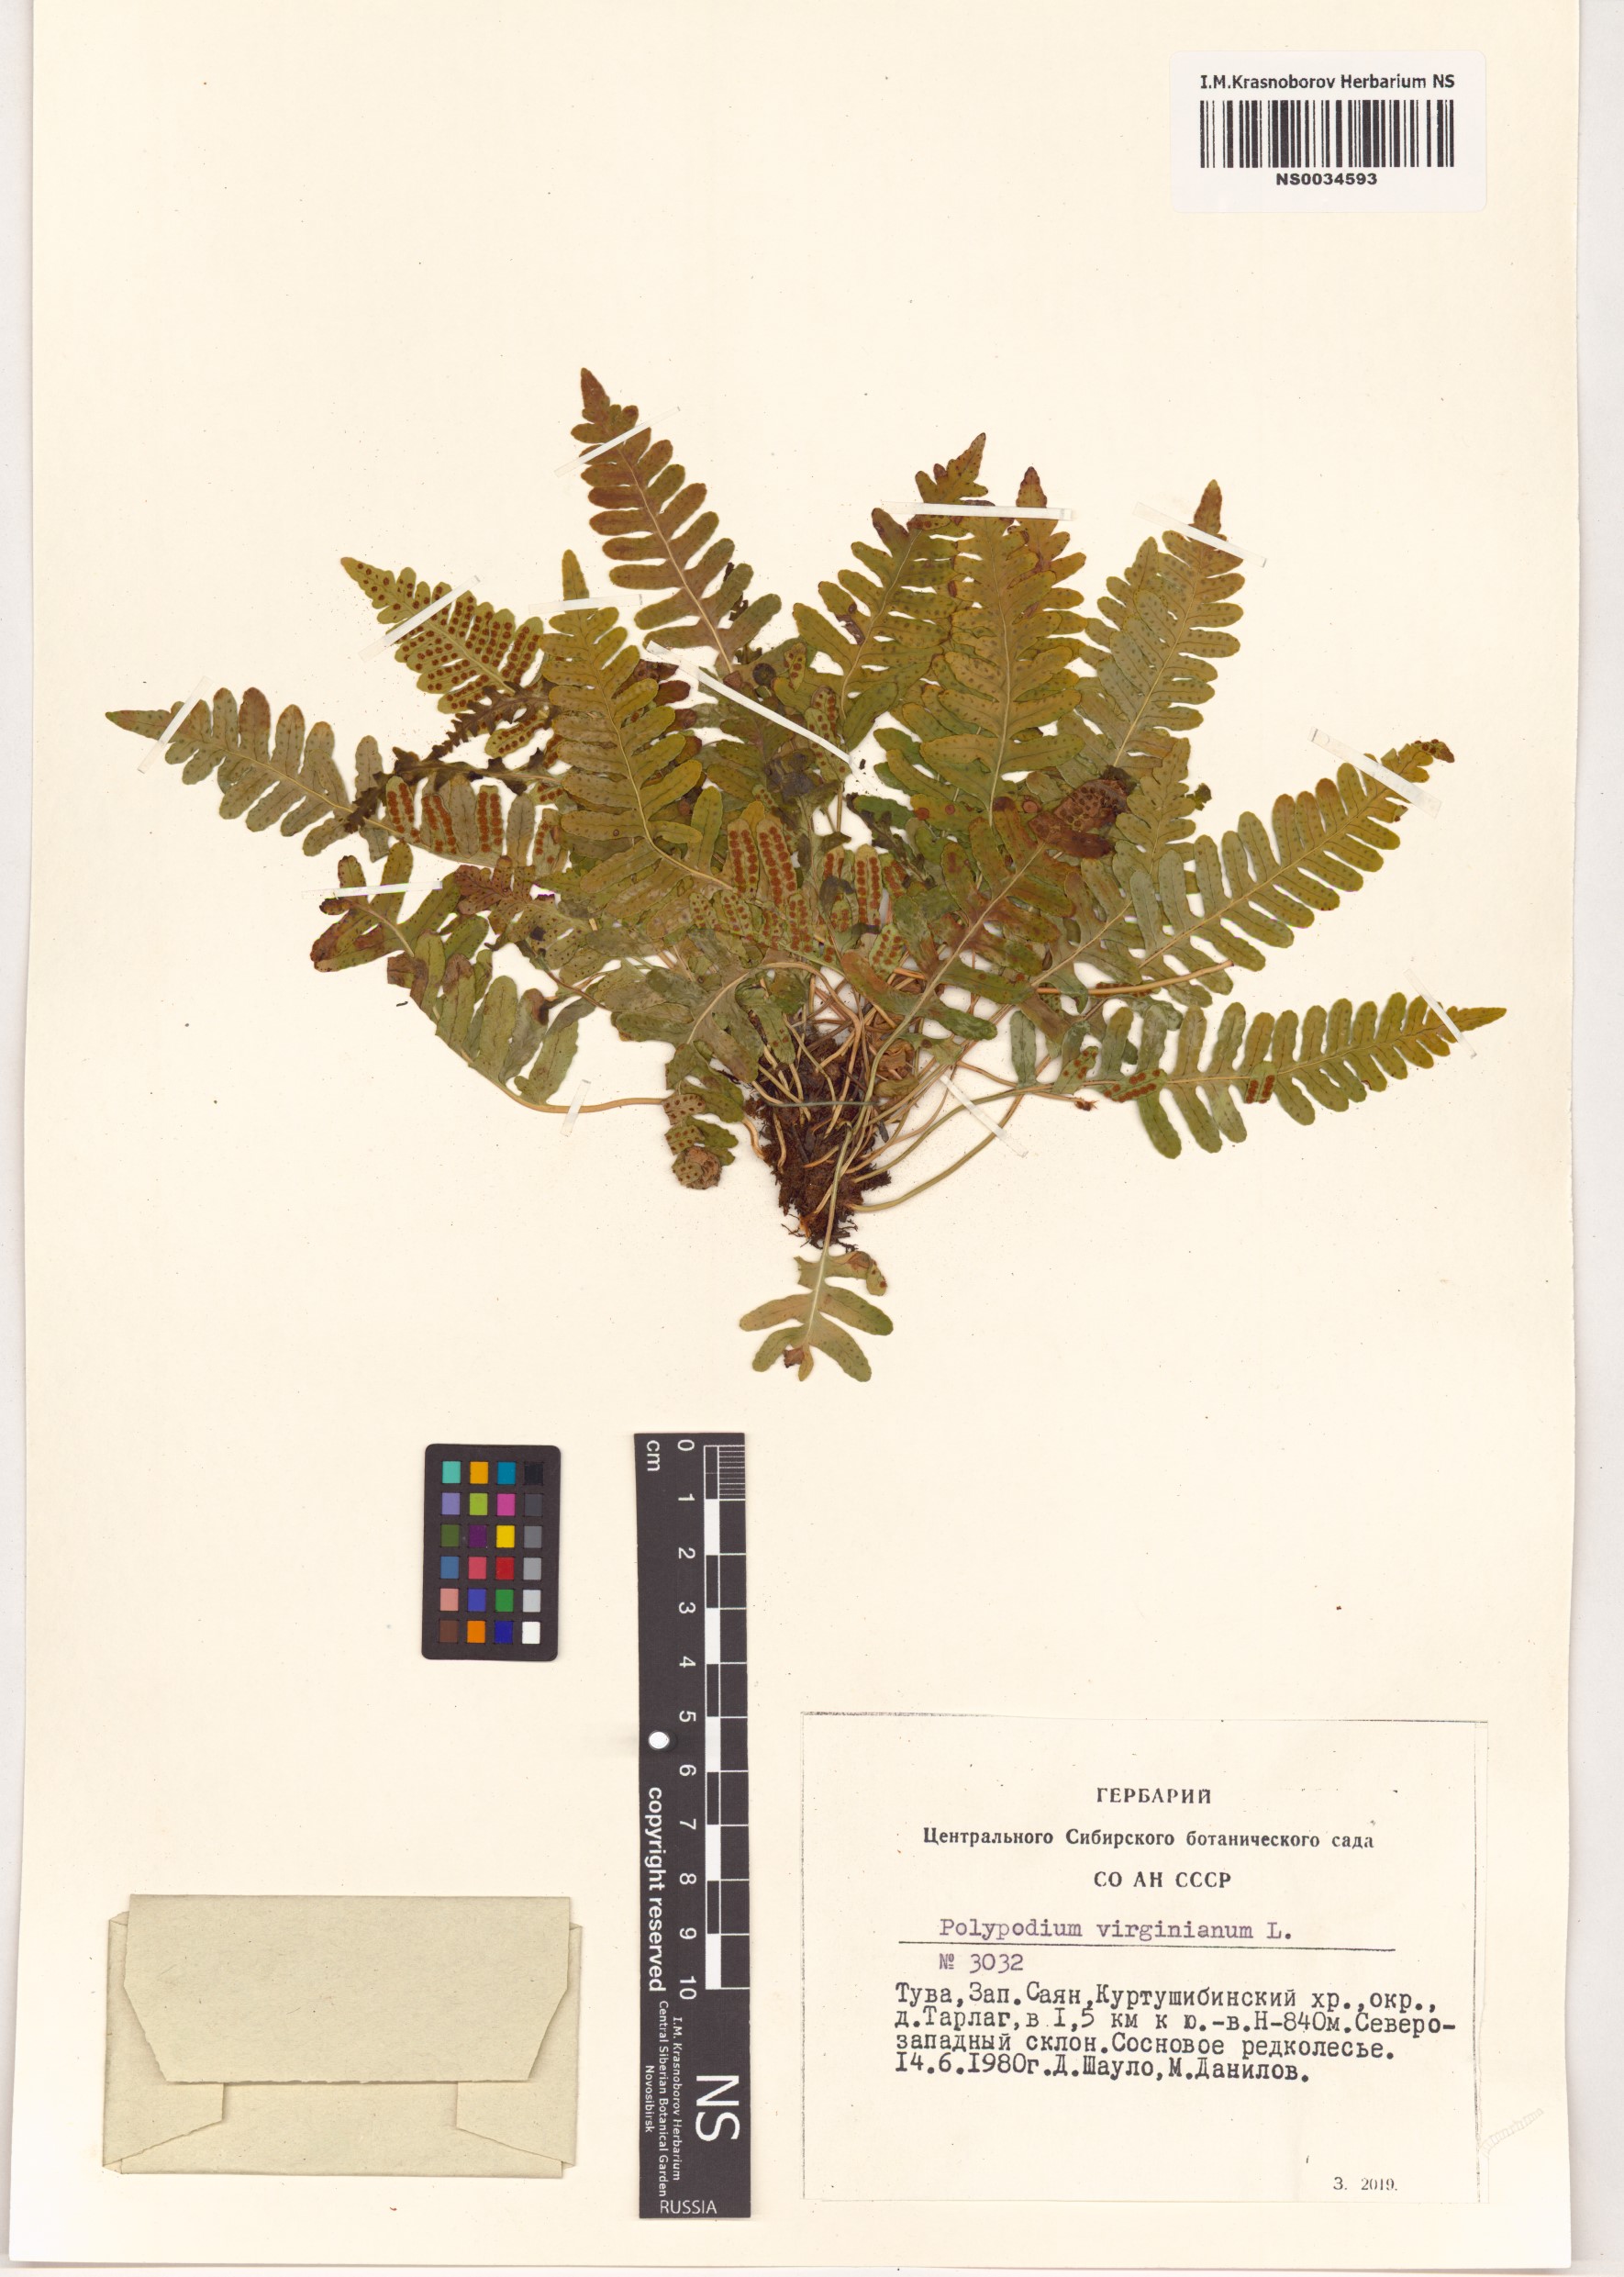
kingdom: Plantae
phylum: Tracheophyta
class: Polypodiopsida
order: Polypodiales
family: Polypodiaceae
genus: Polypodium
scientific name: Polypodium virginianum
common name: American wall fern
